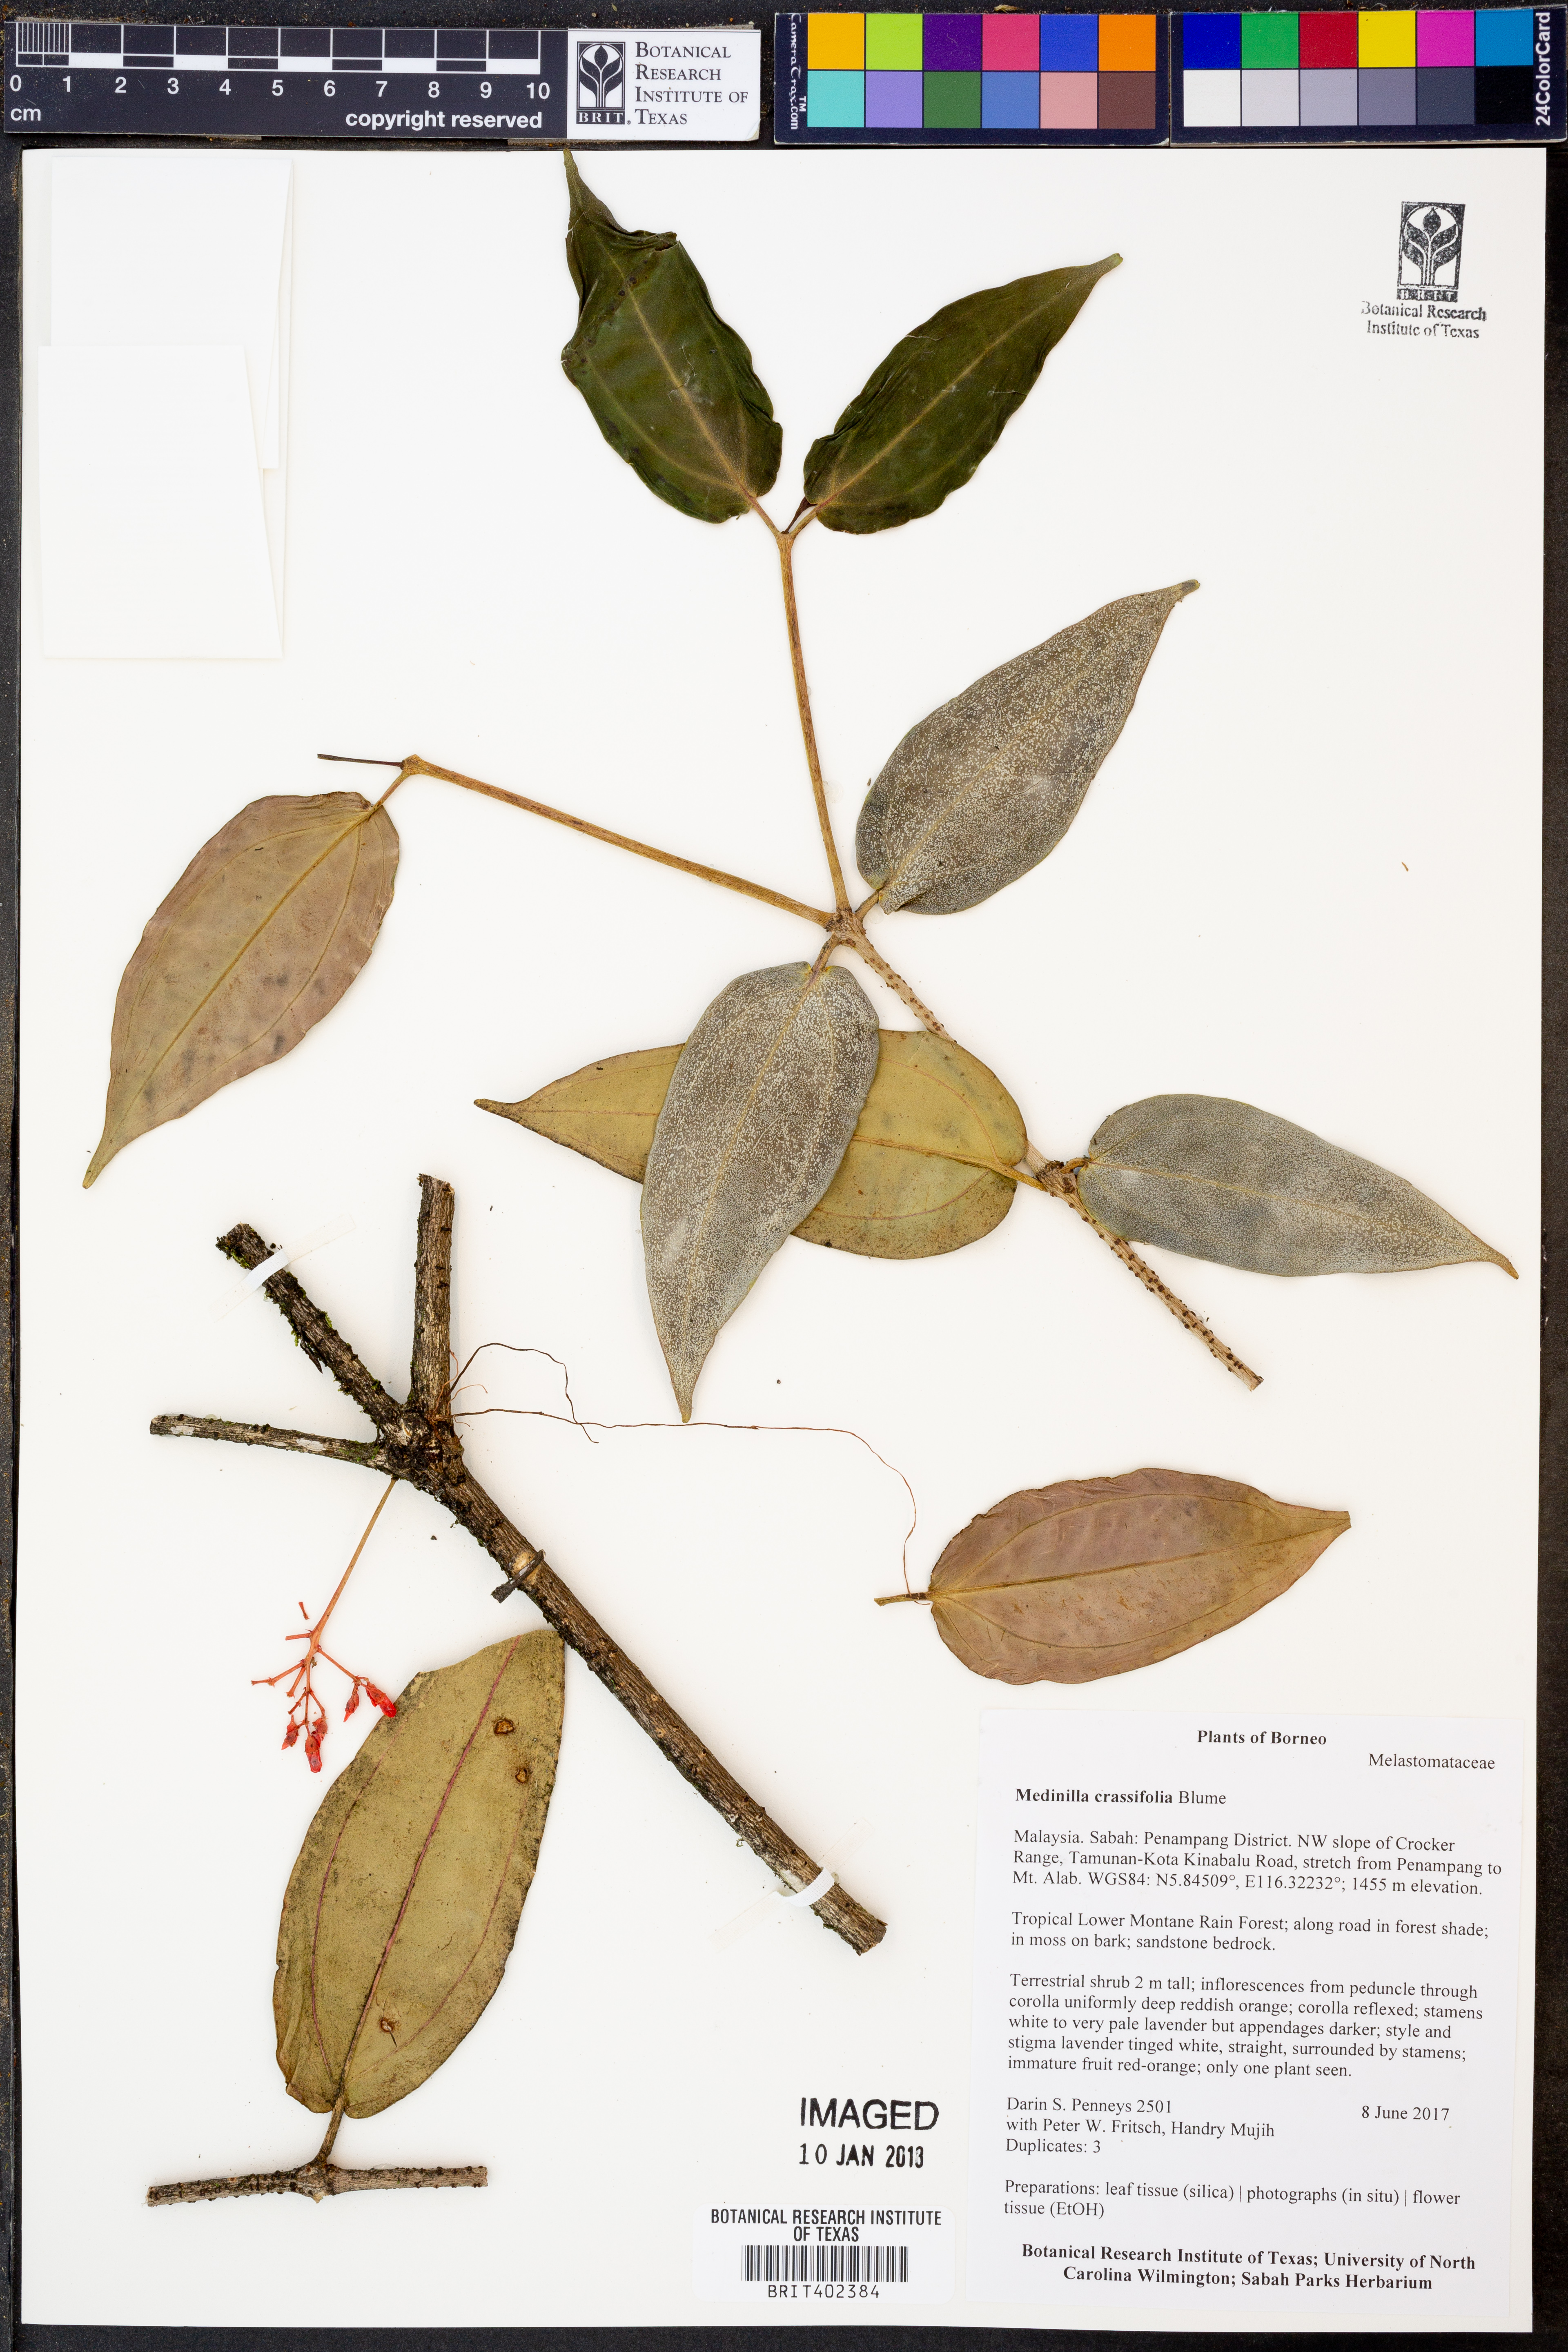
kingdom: Plantae
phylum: Tracheophyta
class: Magnoliopsida
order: Myrtales
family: Melastomataceae
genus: Medinilla
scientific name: Medinilla crassifolia
